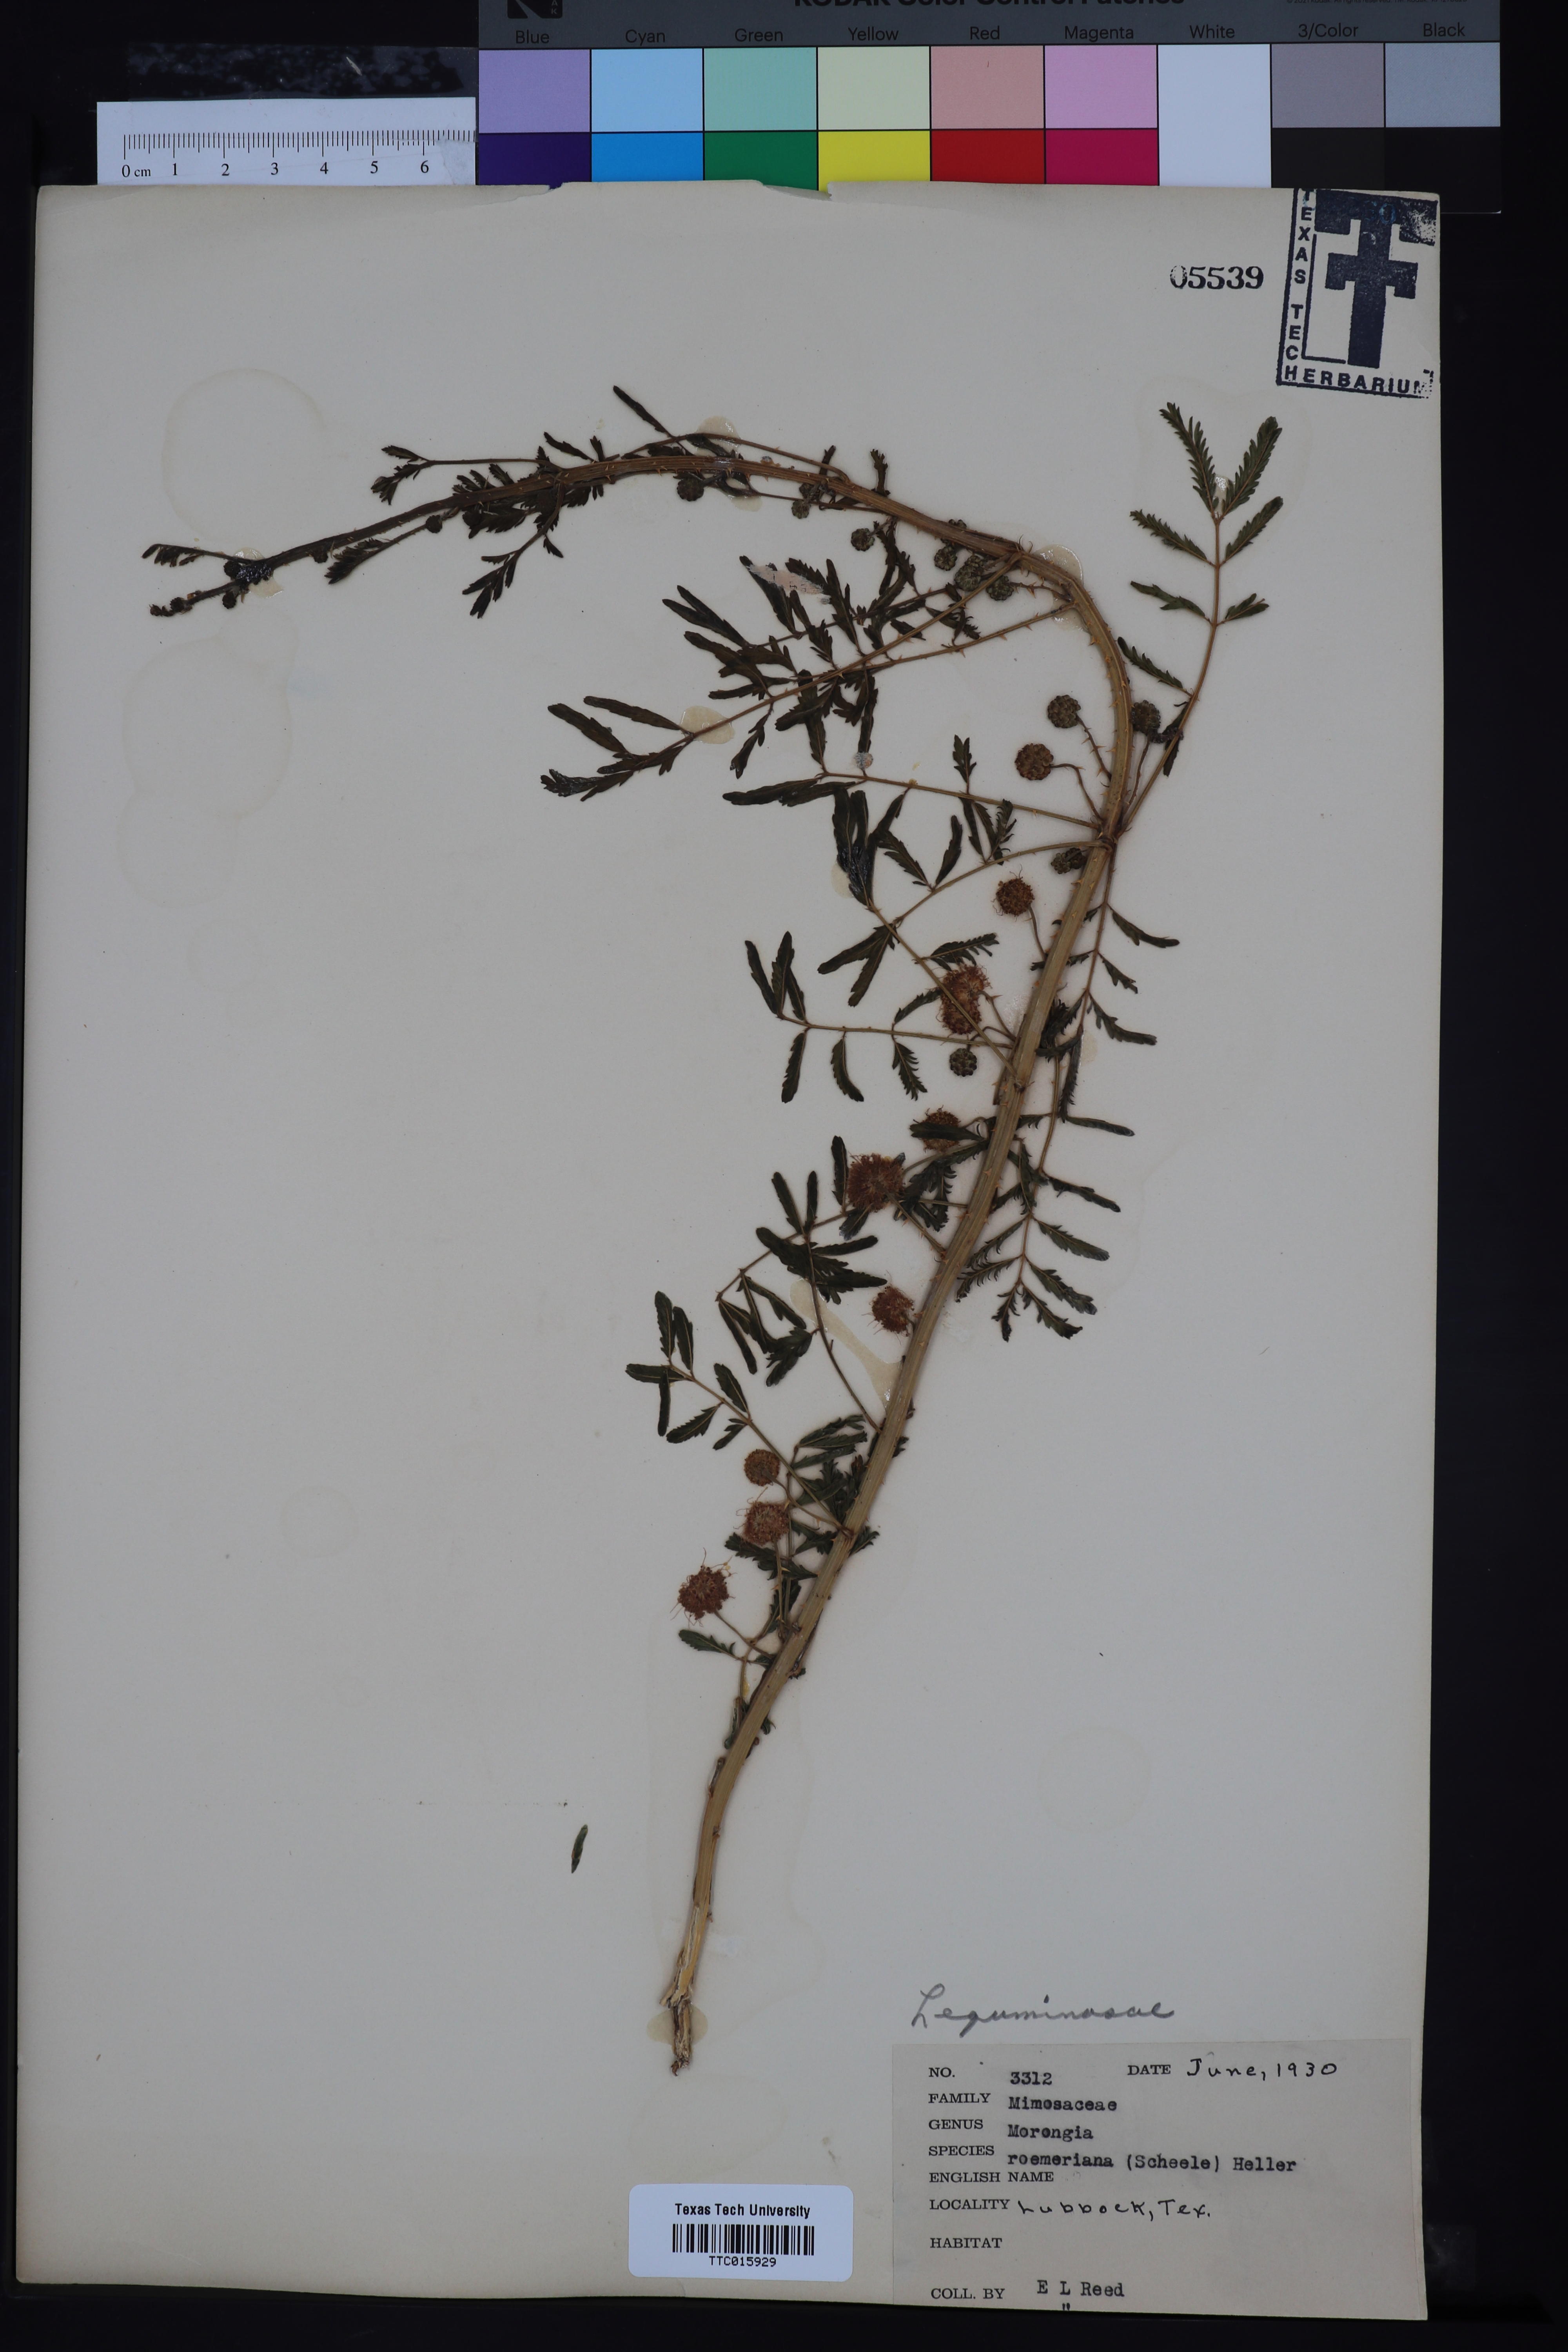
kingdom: Plantae
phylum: Tracheophyta
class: Magnoliopsida
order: Fabales
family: Fabaceae
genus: Mimosa
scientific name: Mimosa quadrivalvis
